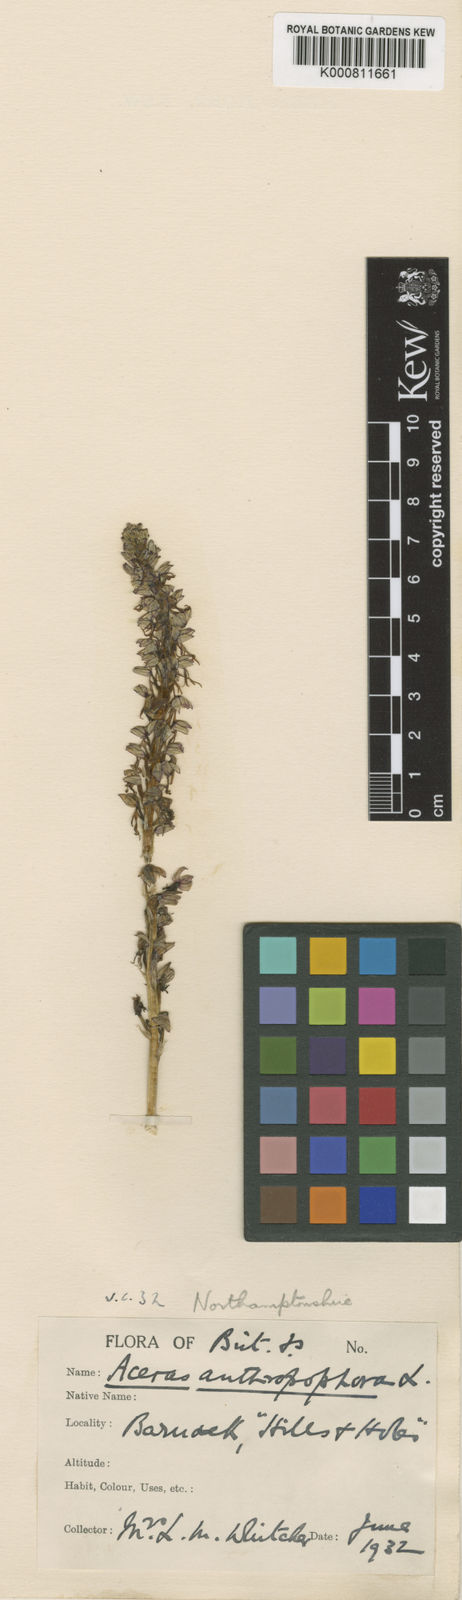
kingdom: Plantae
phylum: Tracheophyta
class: Liliopsida
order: Asparagales
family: Orchidaceae
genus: Orchis
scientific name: Orchis
